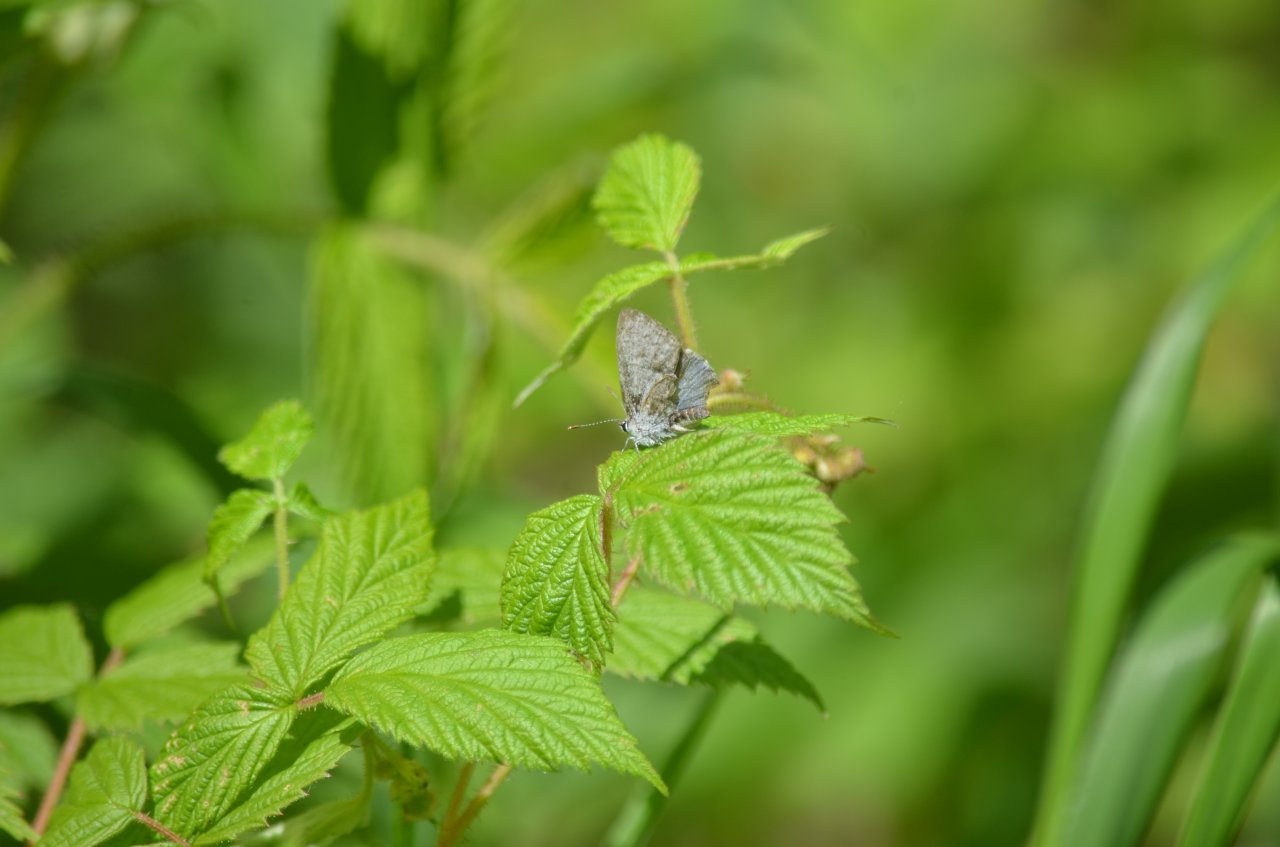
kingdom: Animalia
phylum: Arthropoda
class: Insecta
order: Lepidoptera
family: Lycaenidae
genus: Celastrina
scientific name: Celastrina
